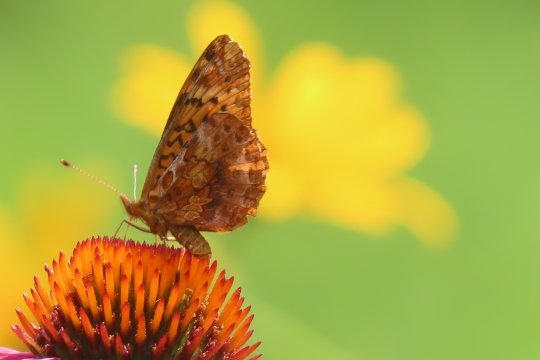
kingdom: Animalia
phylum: Arthropoda
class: Insecta
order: Lepidoptera
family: Nymphalidae
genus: Clossiana
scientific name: Clossiana toddi
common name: Meadow Fritillary
